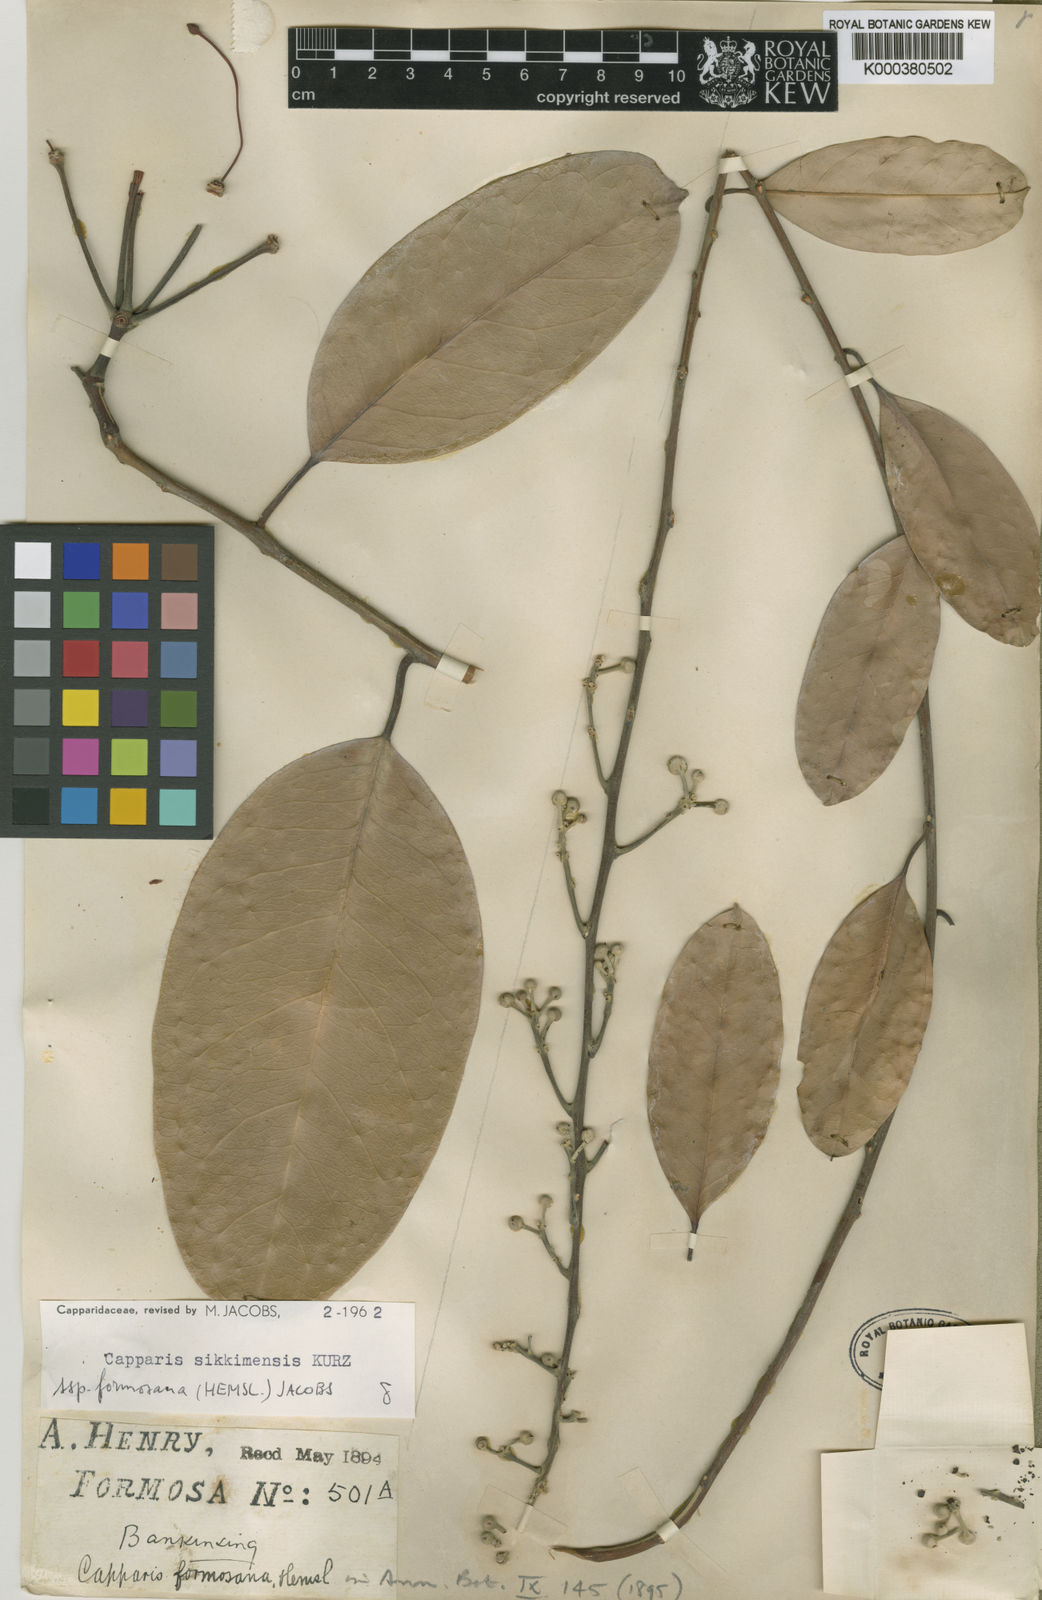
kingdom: Plantae
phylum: Tracheophyta
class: Magnoliopsida
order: Brassicales
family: Capparaceae
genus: Capparis
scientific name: Capparis formosana
